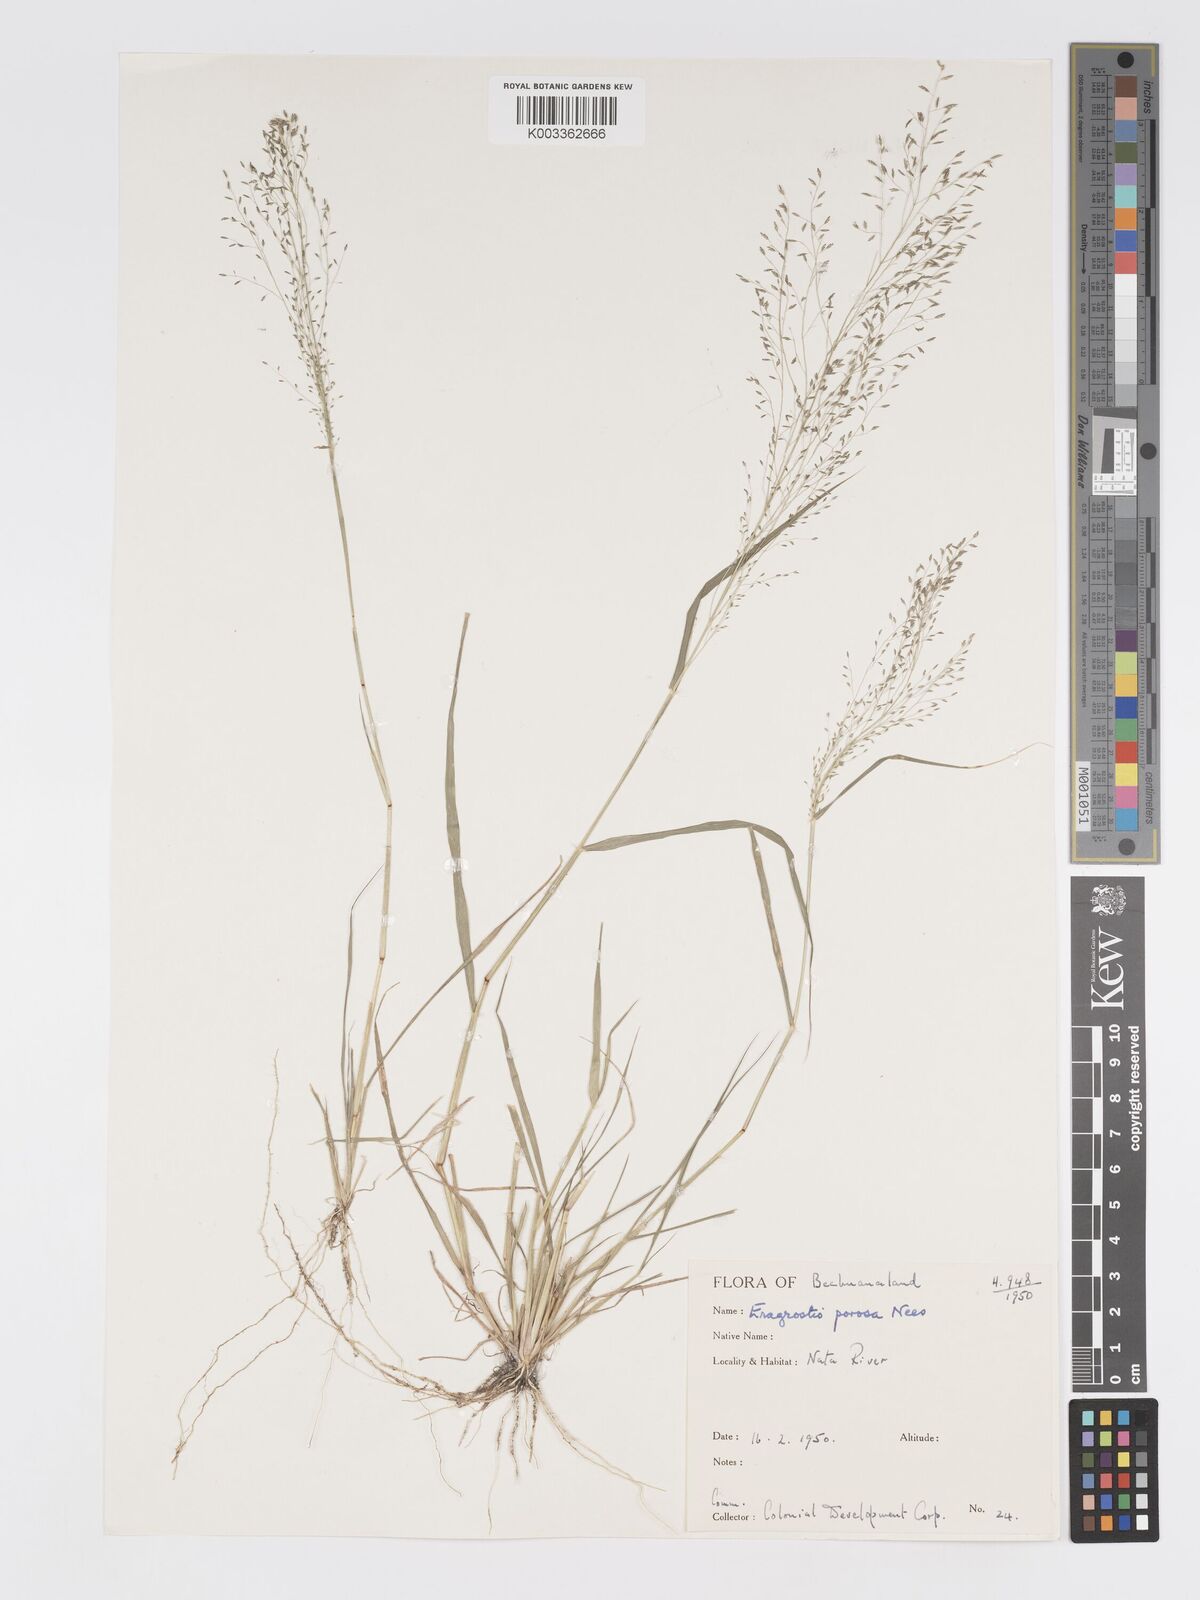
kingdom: Plantae
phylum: Tracheophyta
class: Liliopsida
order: Poales
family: Poaceae
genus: Eragrostis
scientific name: Eragrostis porosa
